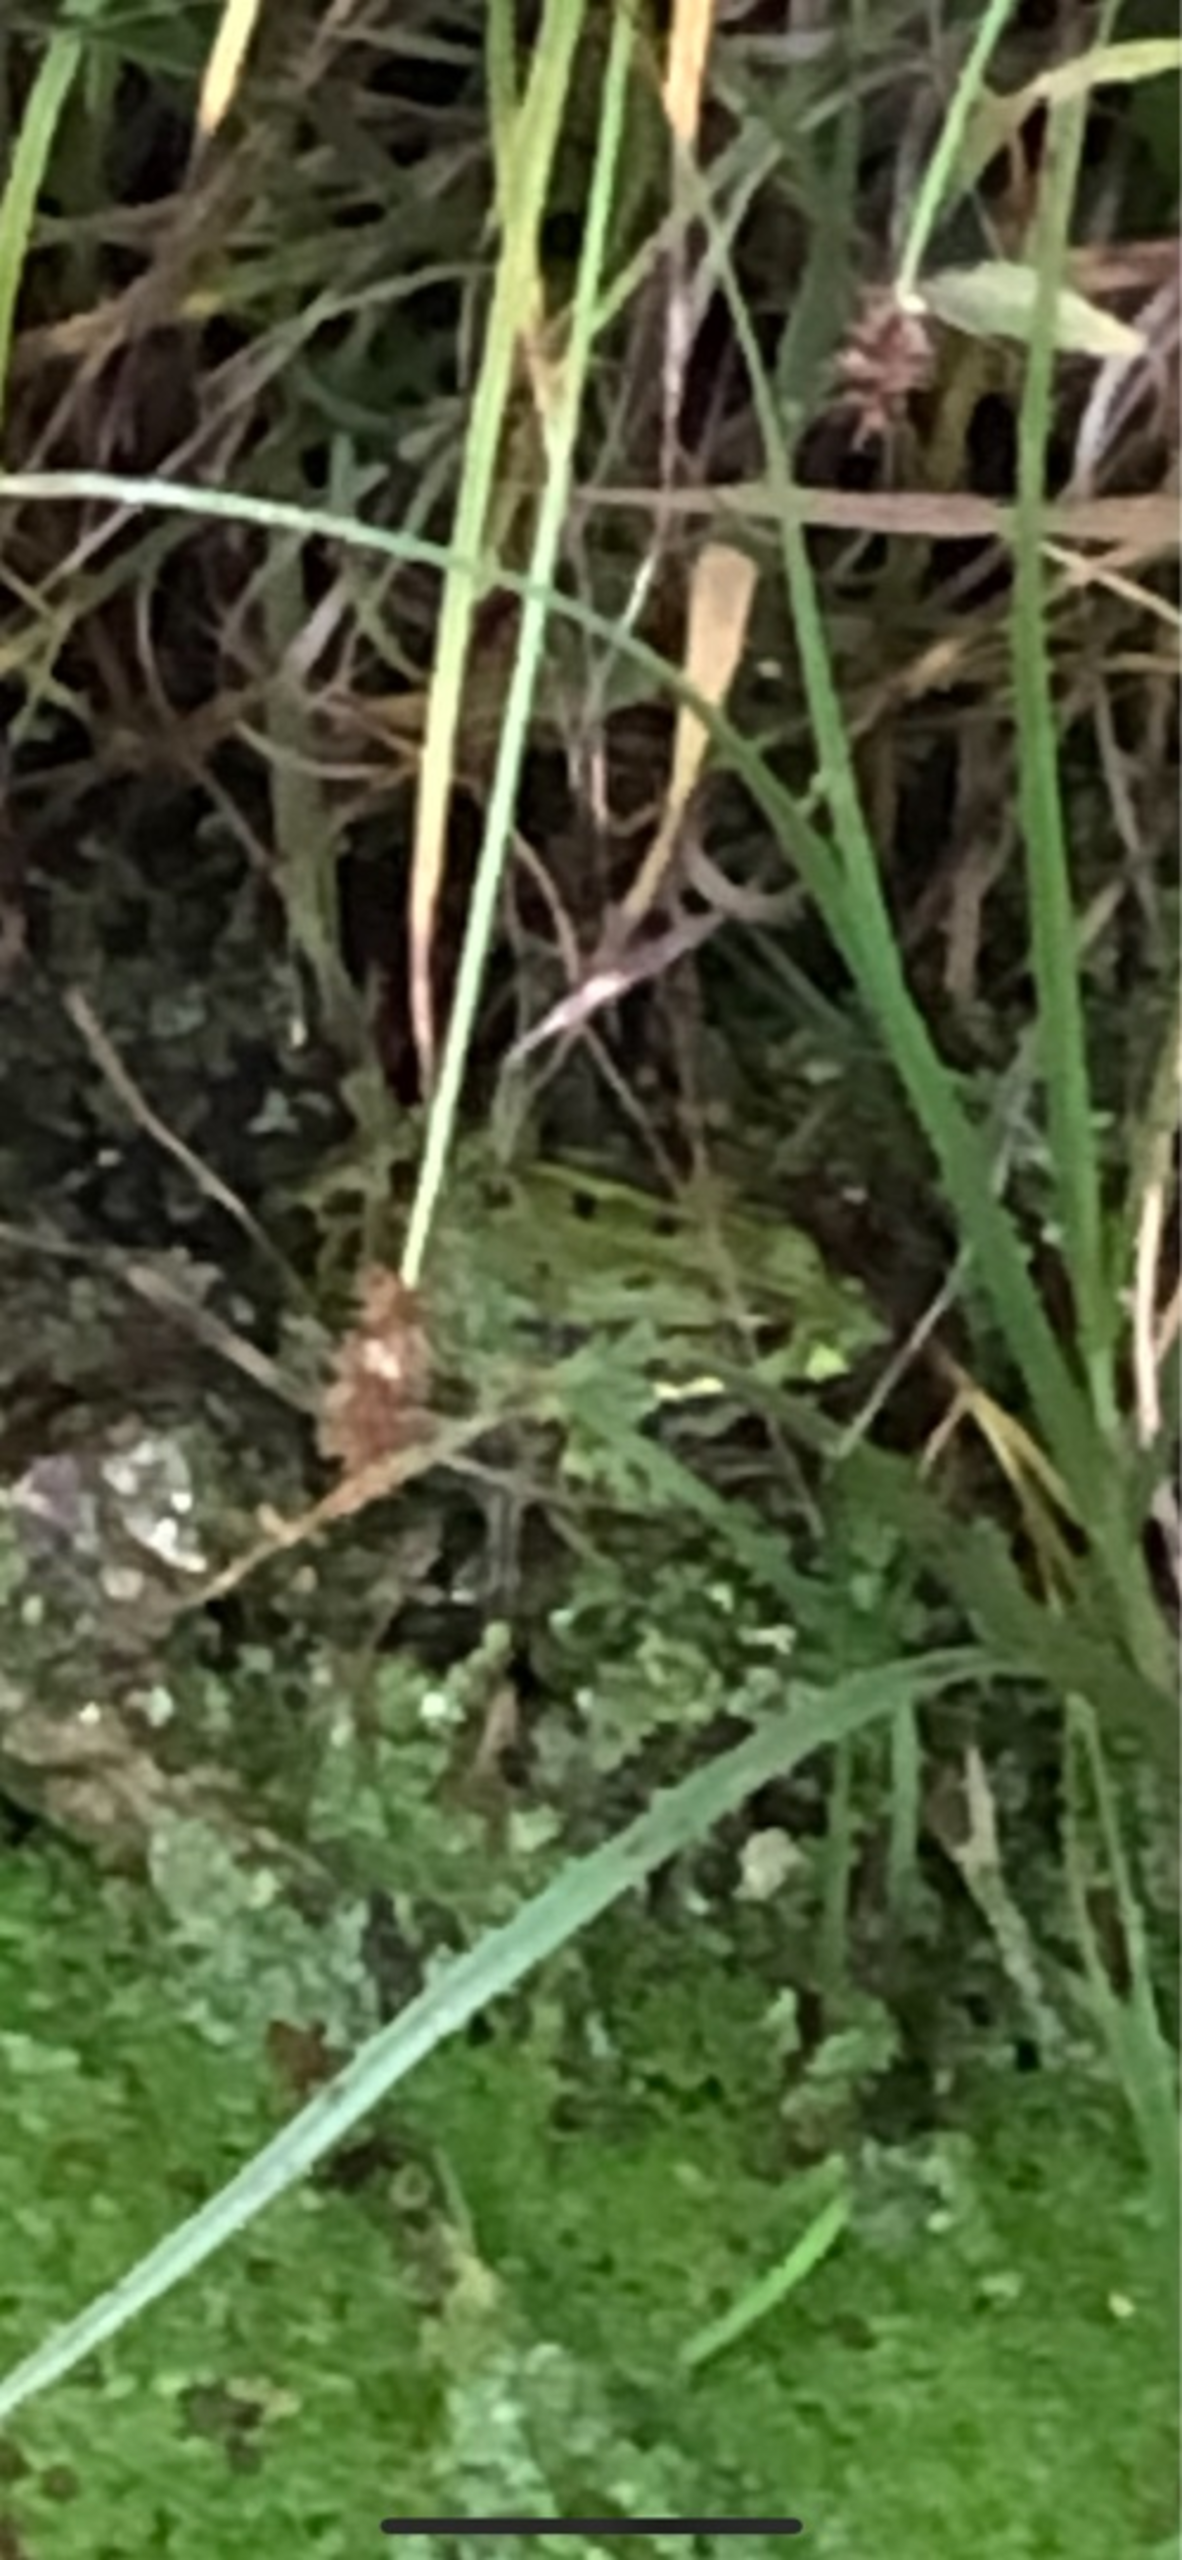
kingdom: Animalia
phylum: Chordata
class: Amphibia
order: Anura
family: Ranidae
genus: Pelophylax
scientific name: Pelophylax lessonae
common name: Grøn frø
